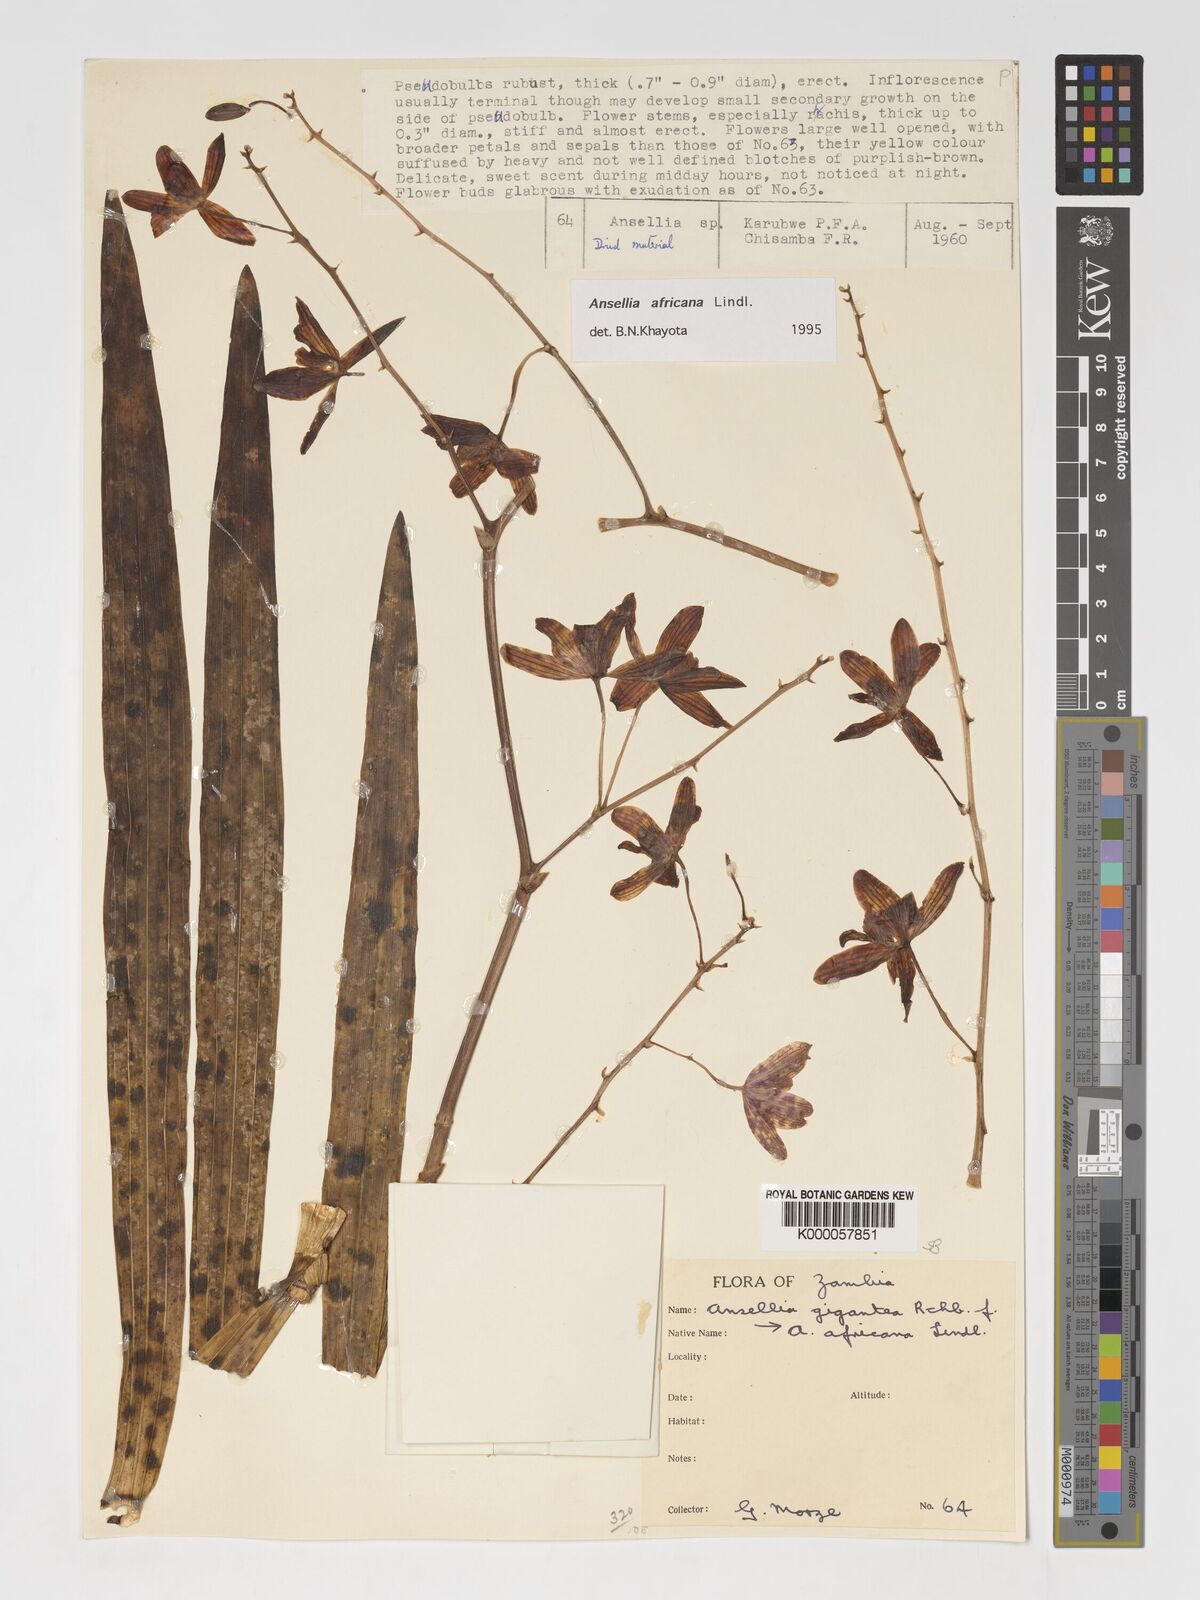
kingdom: Plantae
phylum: Tracheophyta
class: Liliopsida
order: Asparagales
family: Orchidaceae
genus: Ansellia
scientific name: Ansellia africana
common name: African ansellia
